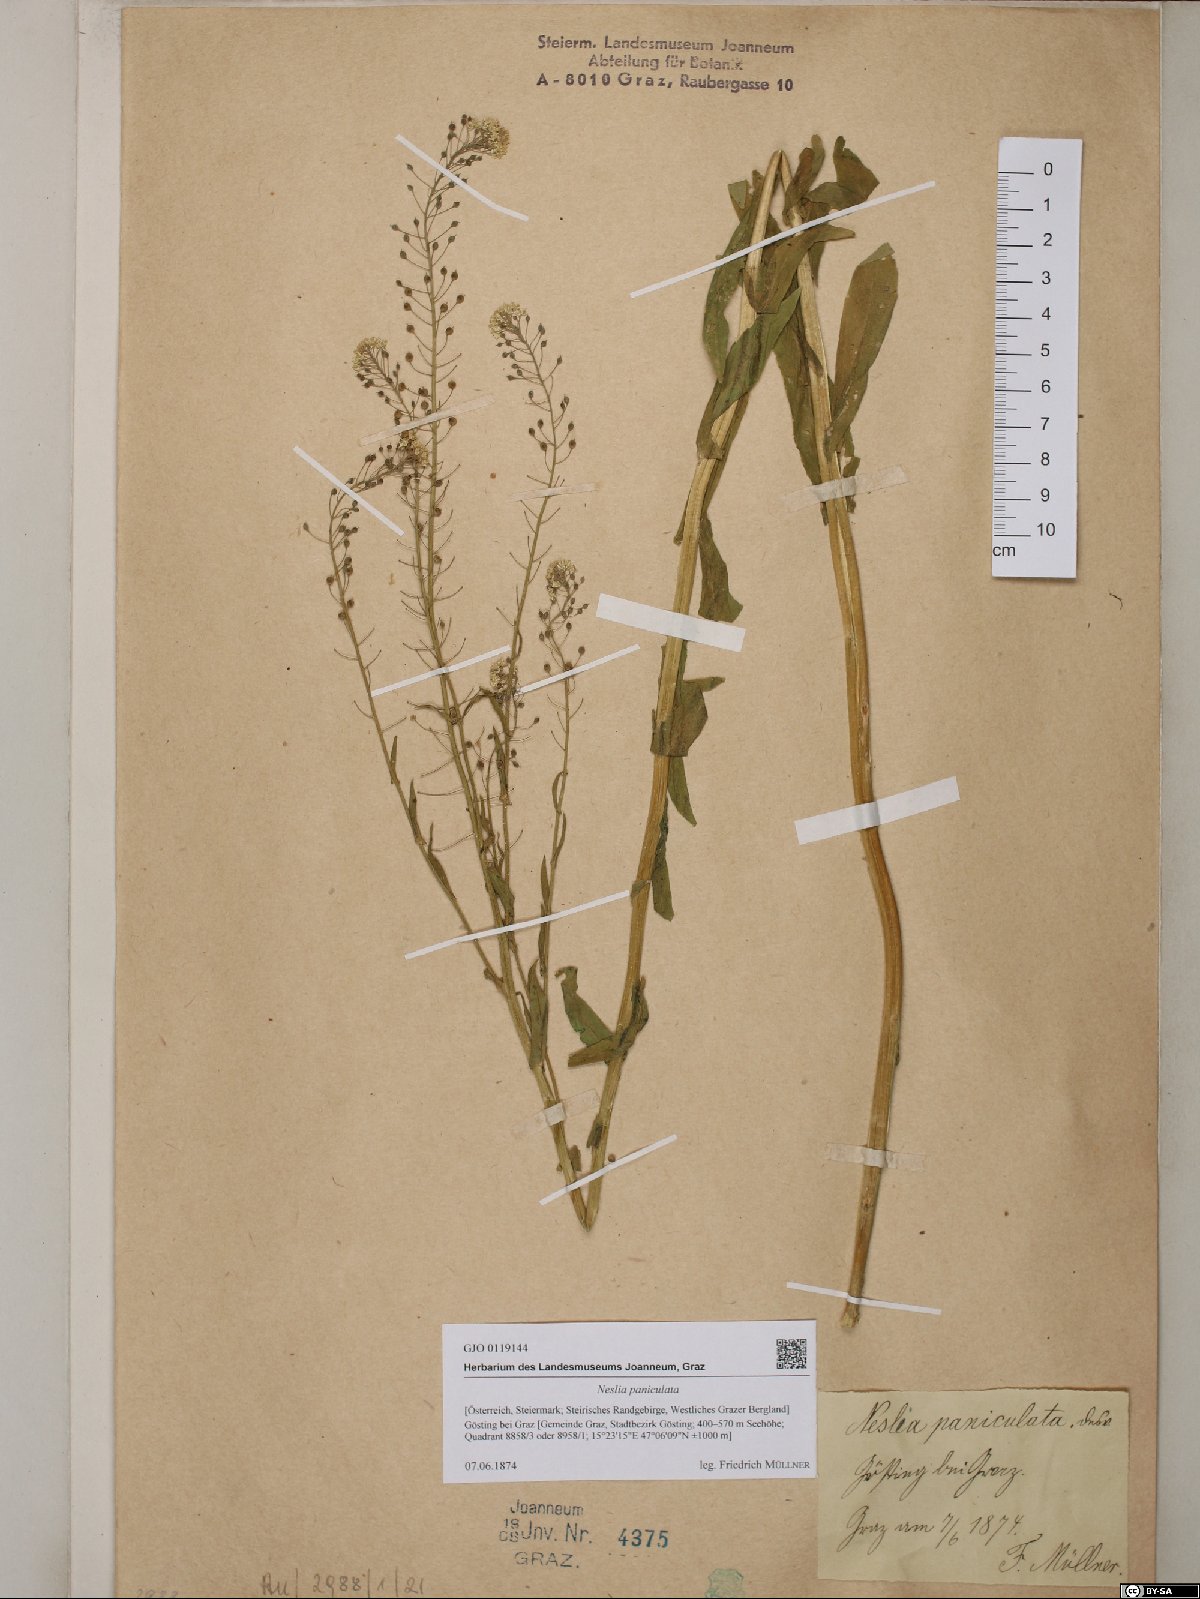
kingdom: Plantae
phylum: Tracheophyta
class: Magnoliopsida
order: Brassicales
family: Brassicaceae
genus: Neslia
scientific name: Neslia paniculata
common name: Ball mustard
